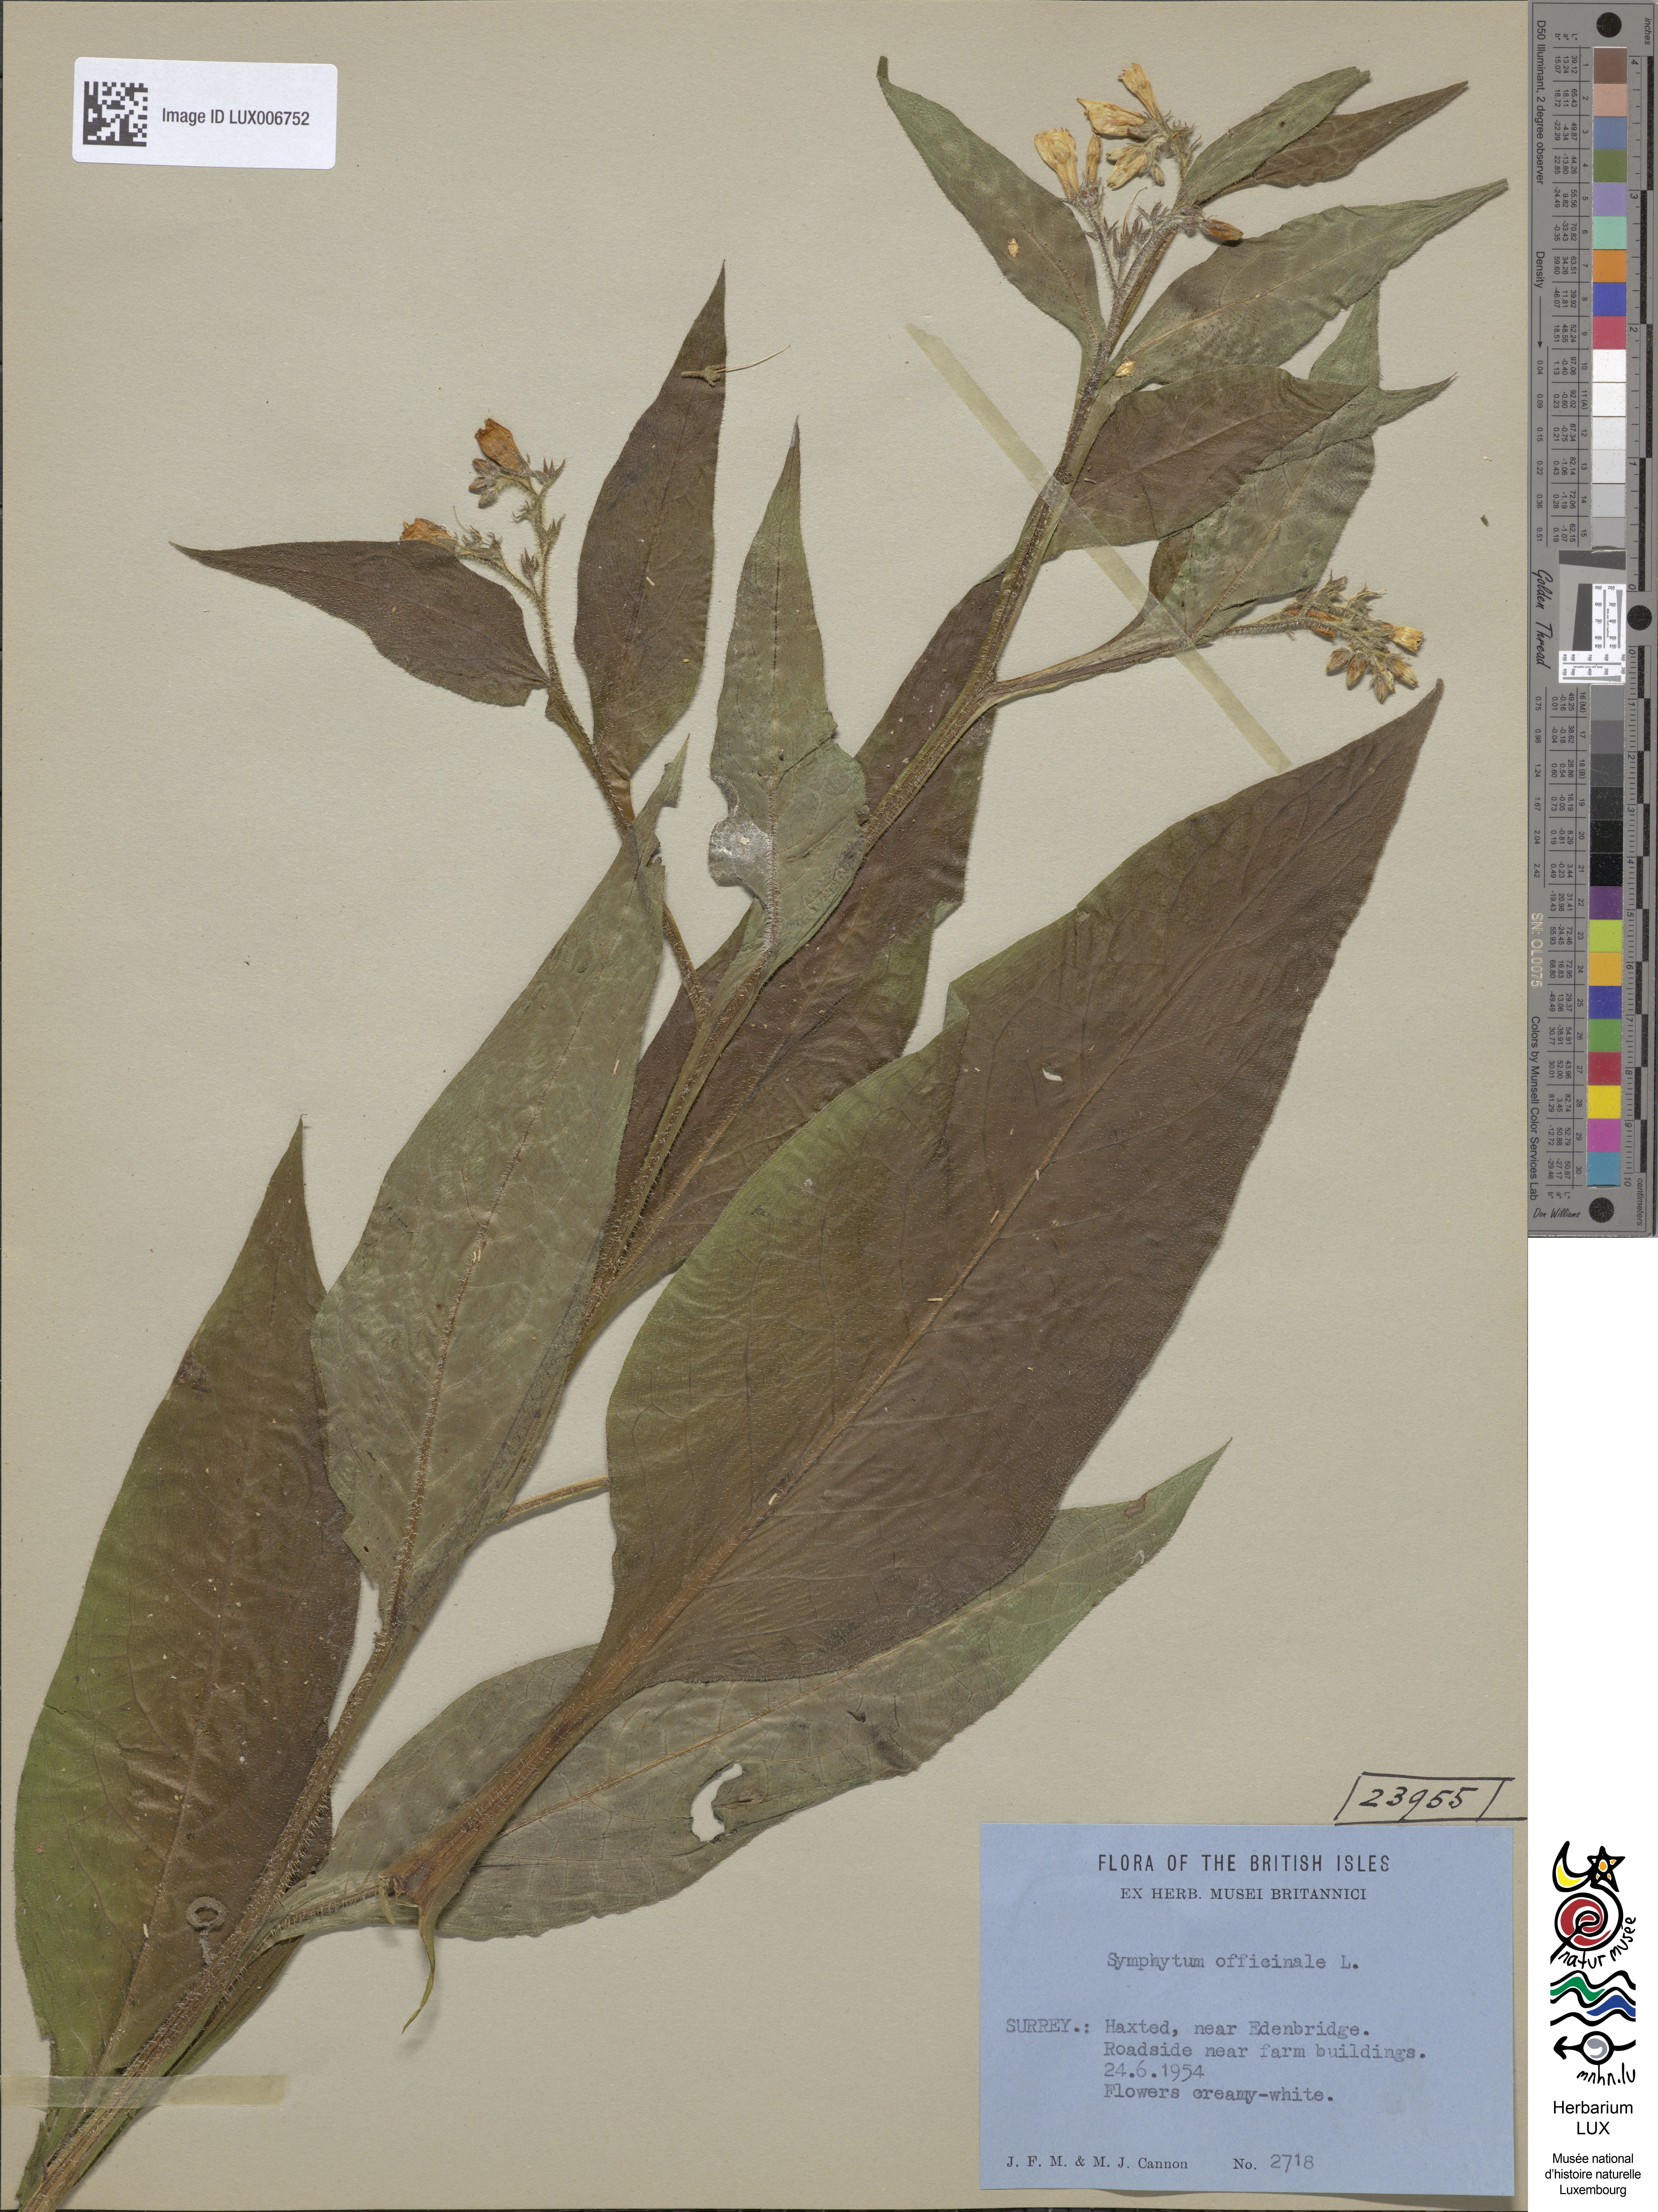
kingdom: Plantae
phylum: Tracheophyta
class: Magnoliopsida
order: Boraginales
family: Boraginaceae
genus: Symphytum
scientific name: Symphytum officinale
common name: Common comfrey
